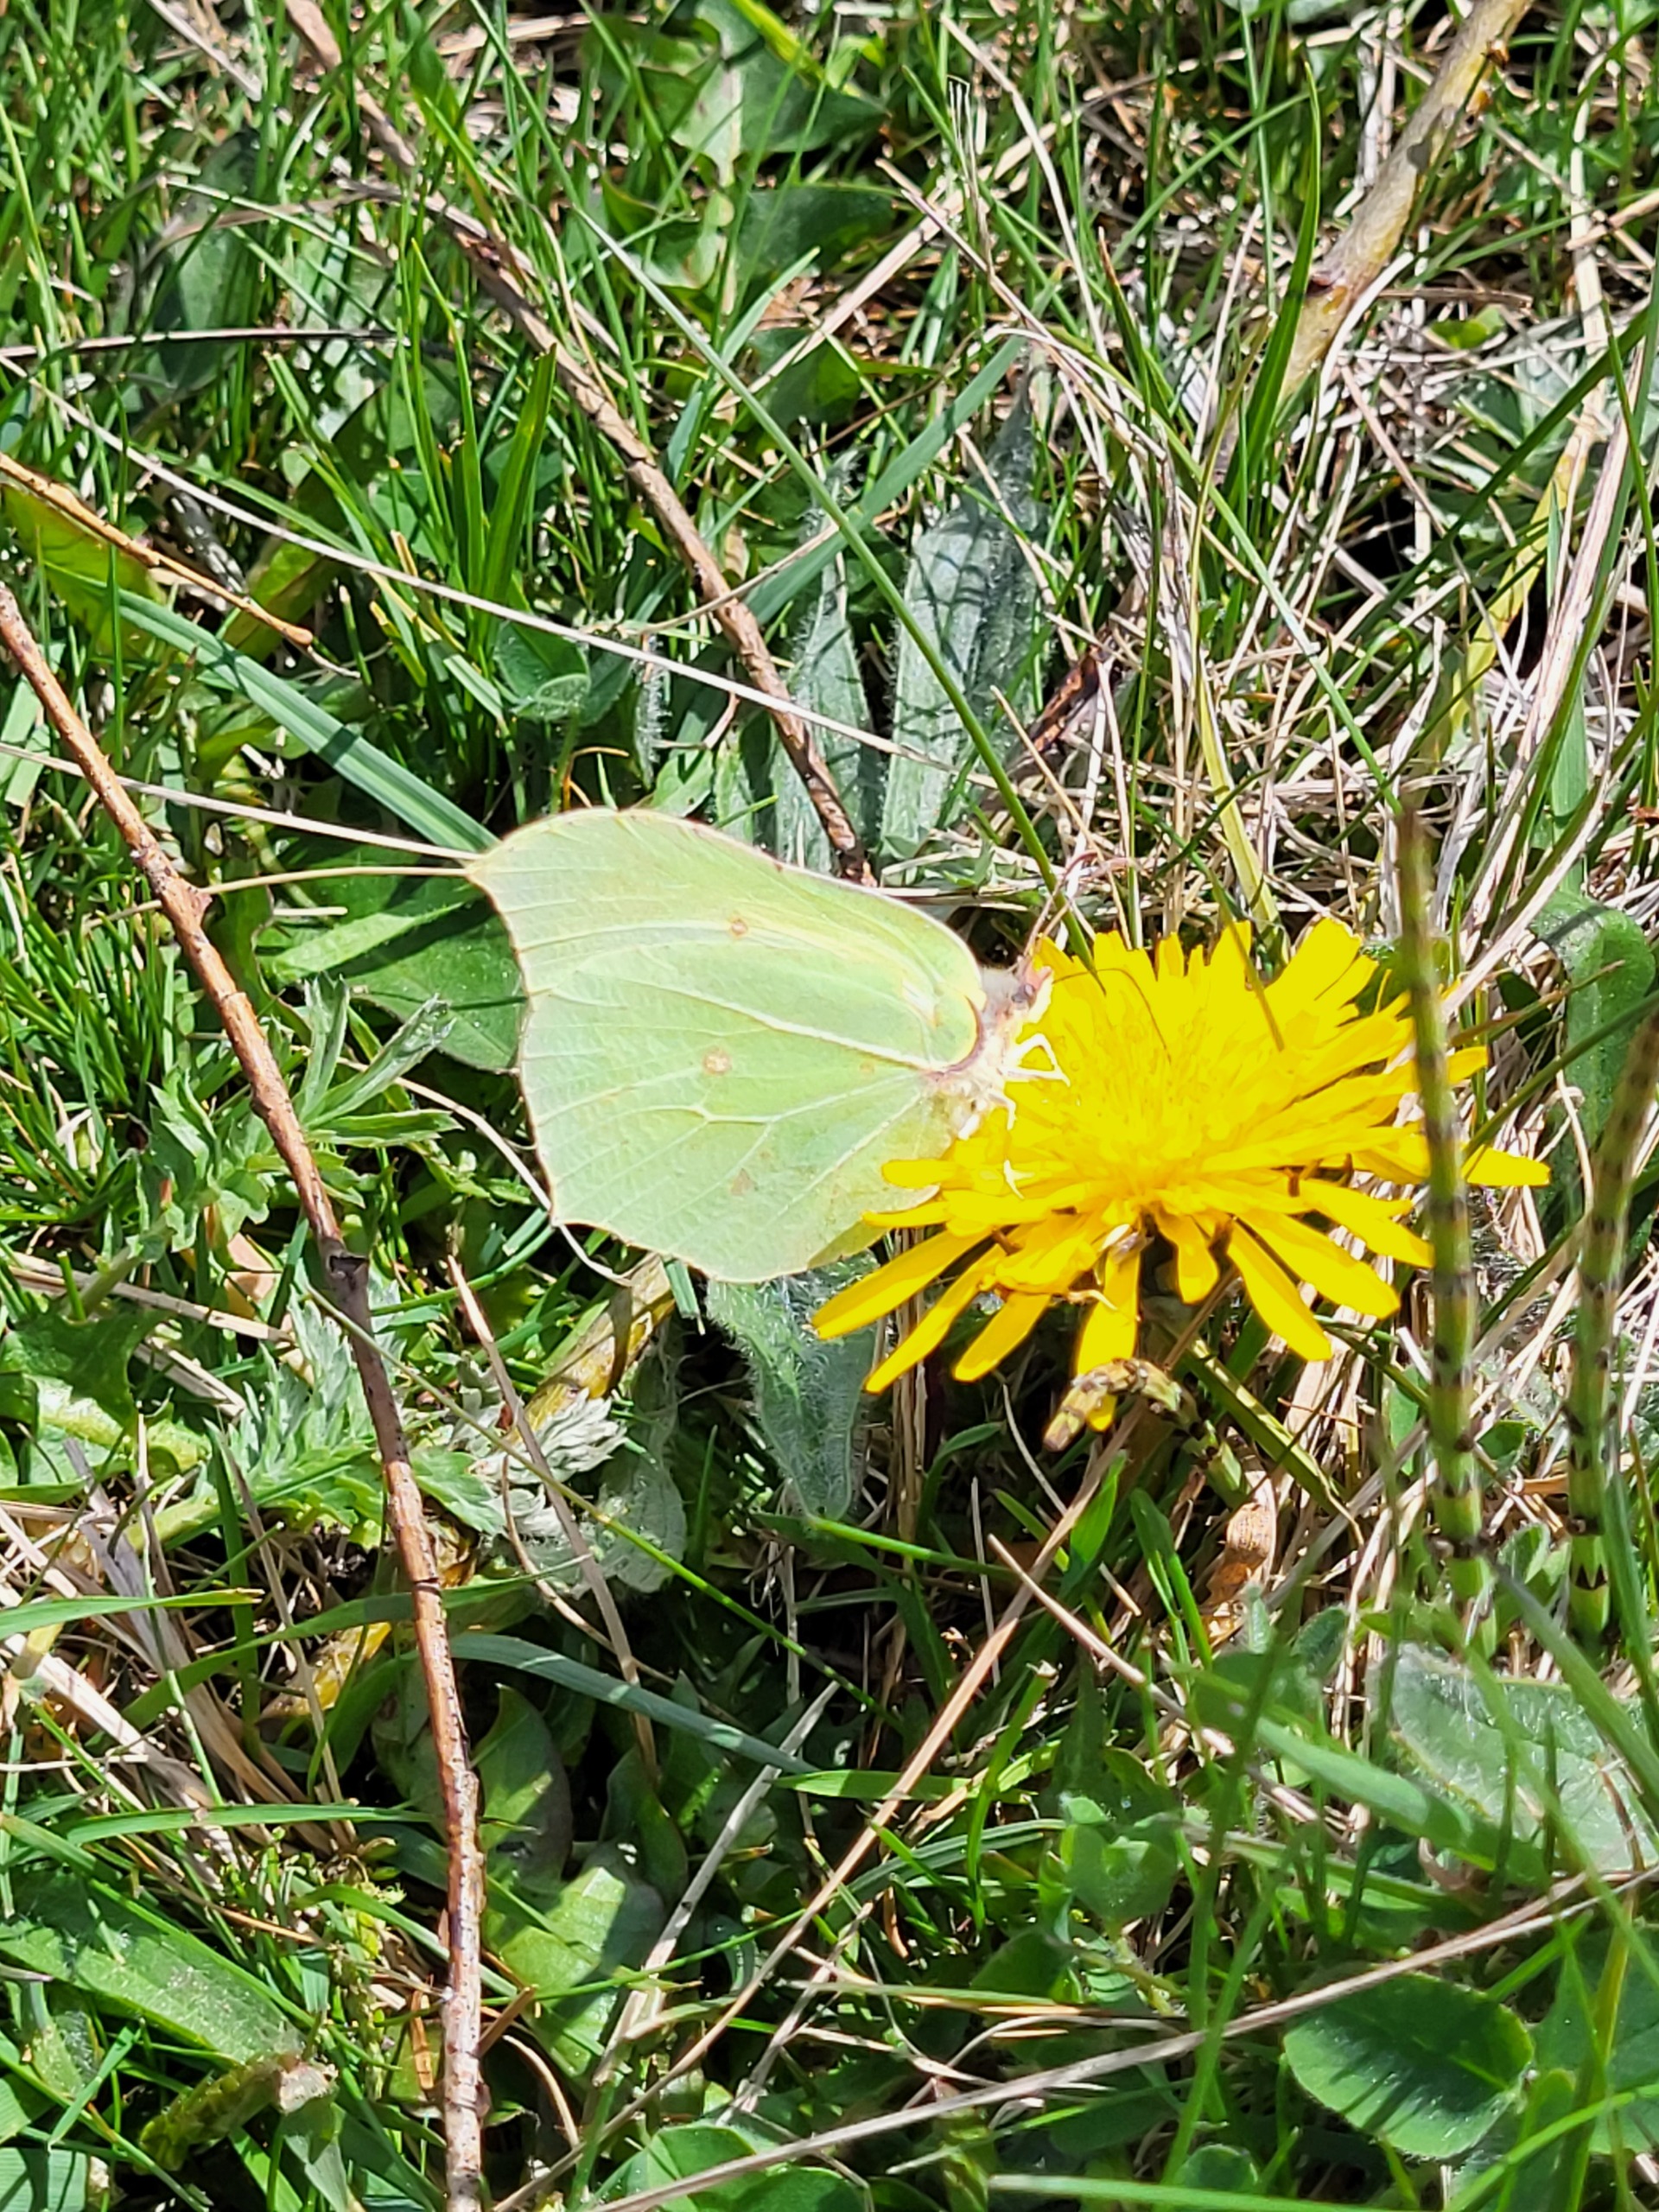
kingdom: Animalia
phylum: Arthropoda
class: Insecta
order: Lepidoptera
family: Pieridae
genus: Gonepteryx
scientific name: Gonepteryx rhamni
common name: Citronsommerfugl
